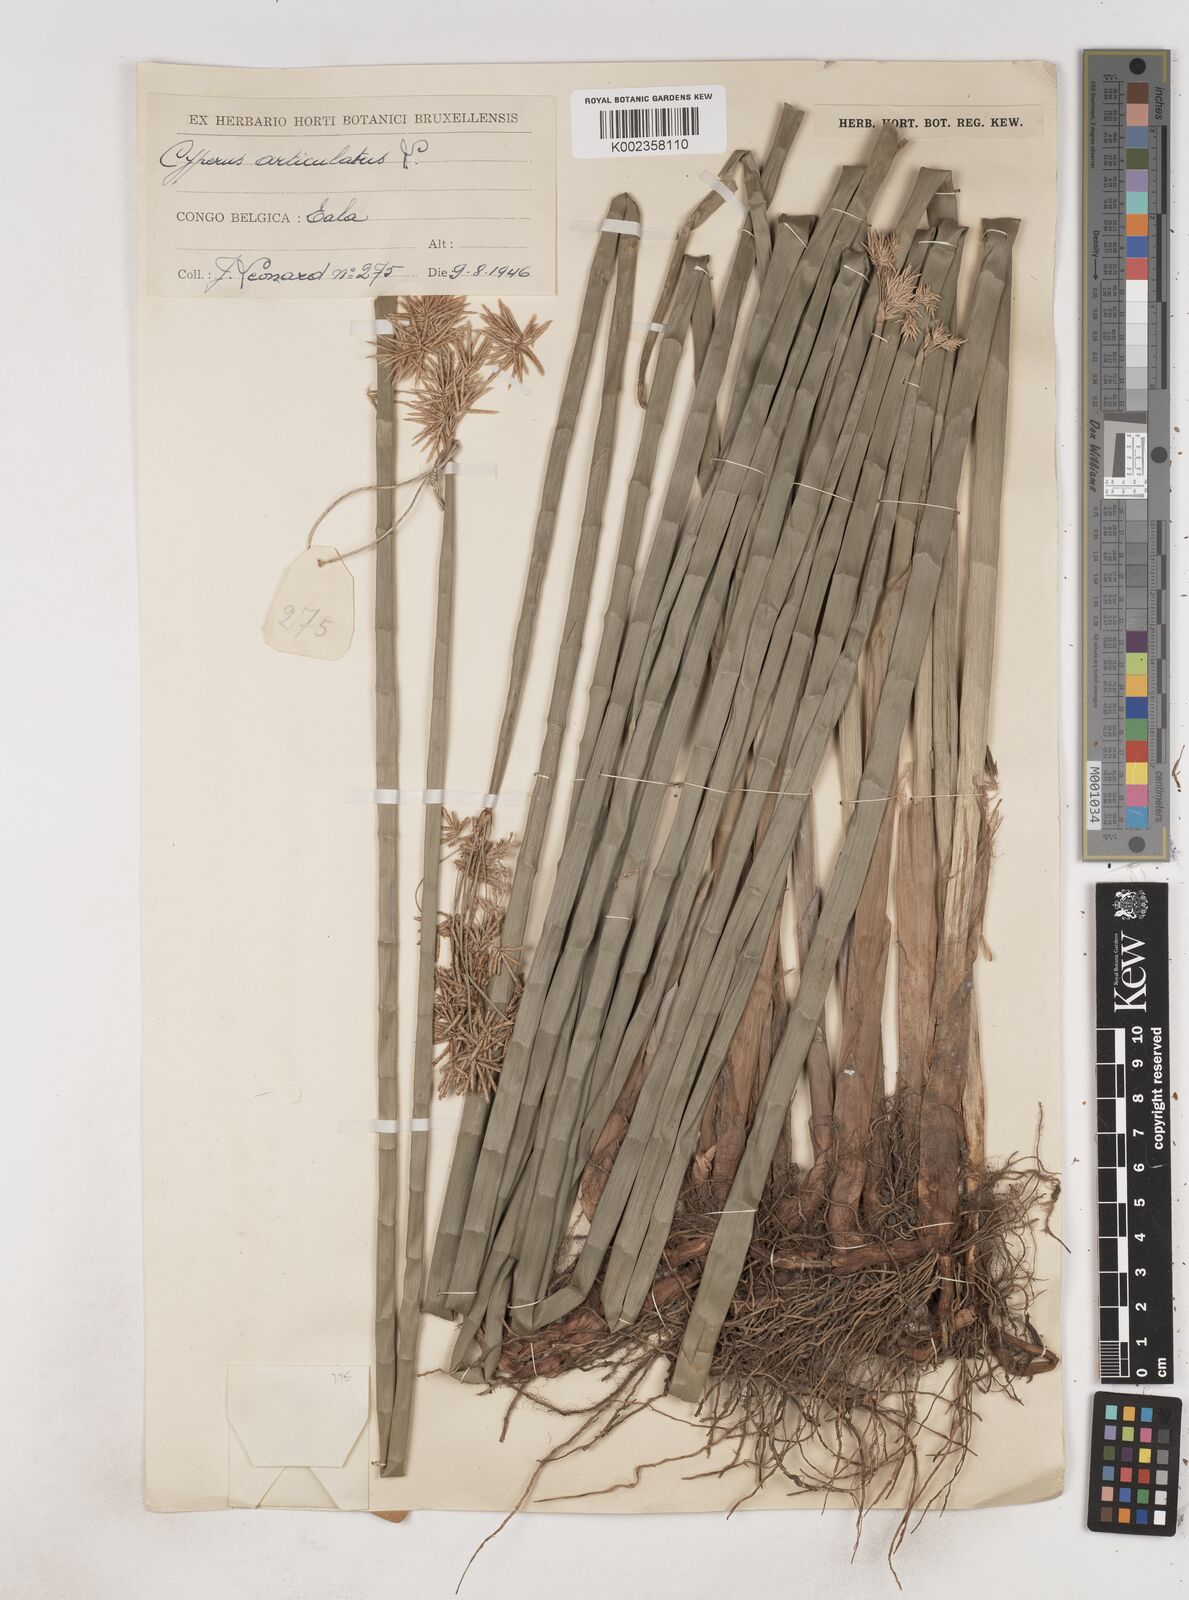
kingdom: Plantae
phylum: Tracheophyta
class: Liliopsida
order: Poales
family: Cyperaceae
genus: Cyperus
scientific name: Cyperus articulatus
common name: Jointed flatsedge
